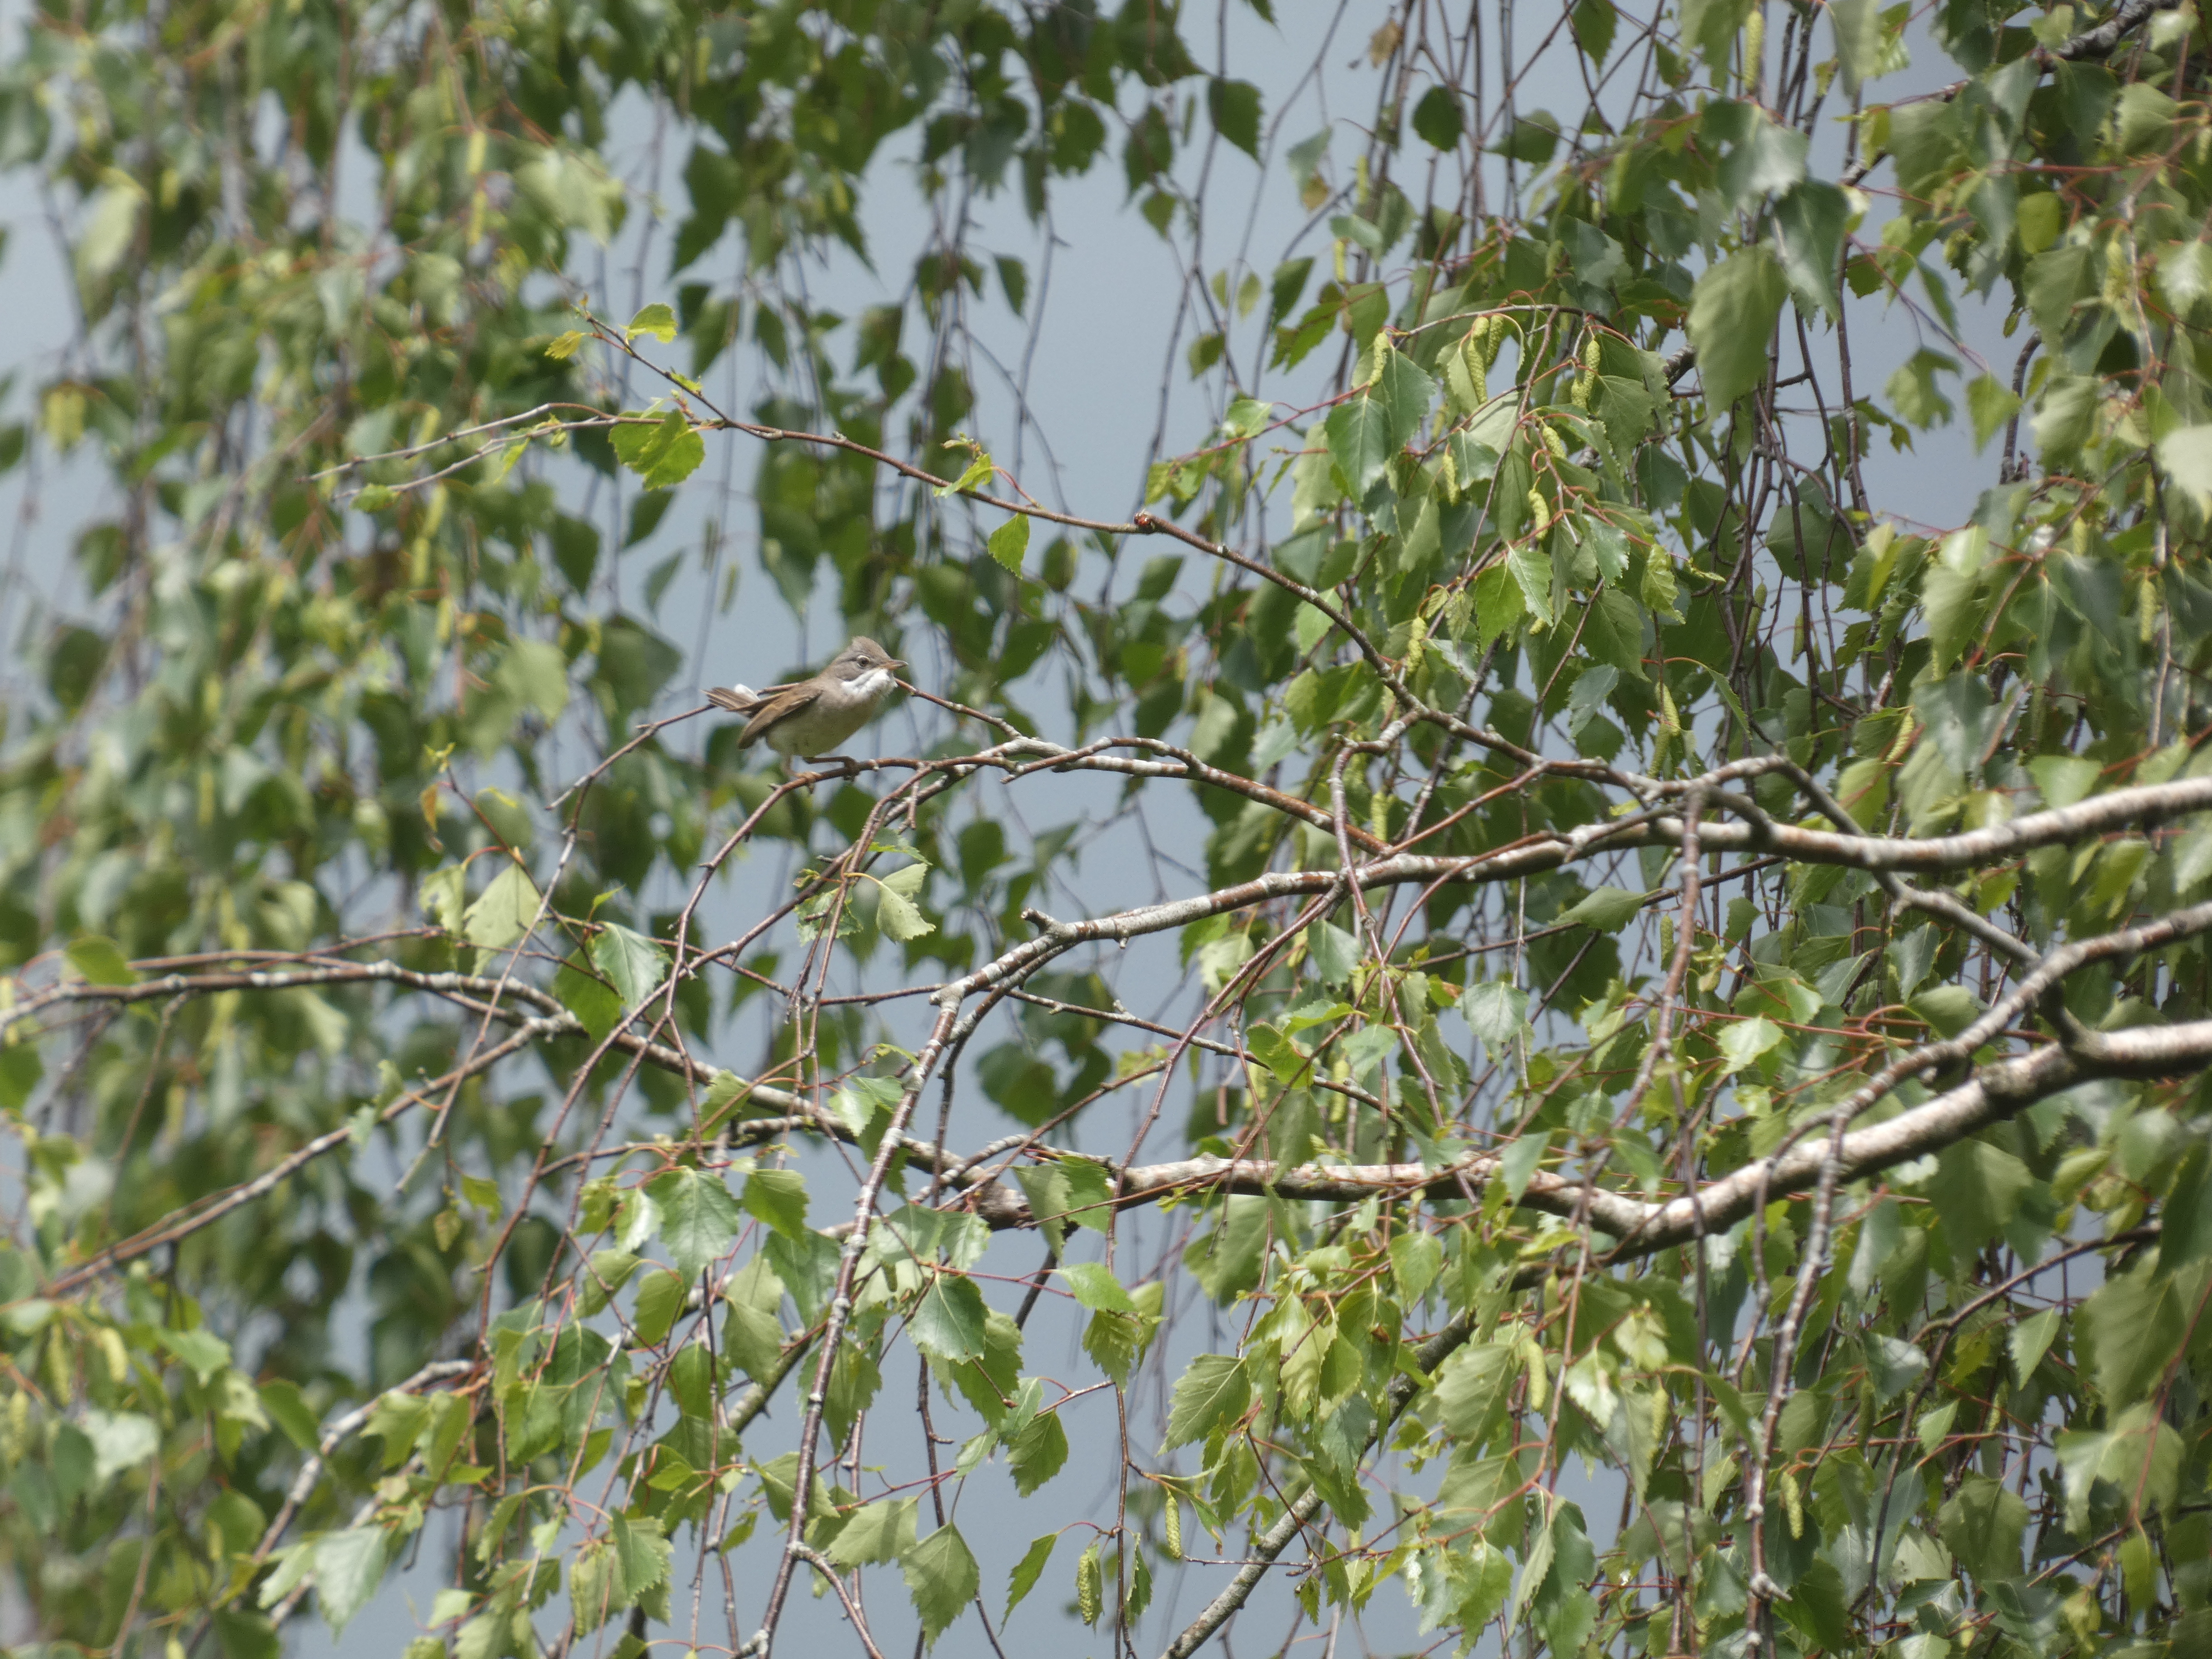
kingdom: Animalia
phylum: Chordata
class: Aves
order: Passeriformes
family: Sylviidae
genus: Sylvia
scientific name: Sylvia communis
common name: Tornsanger
